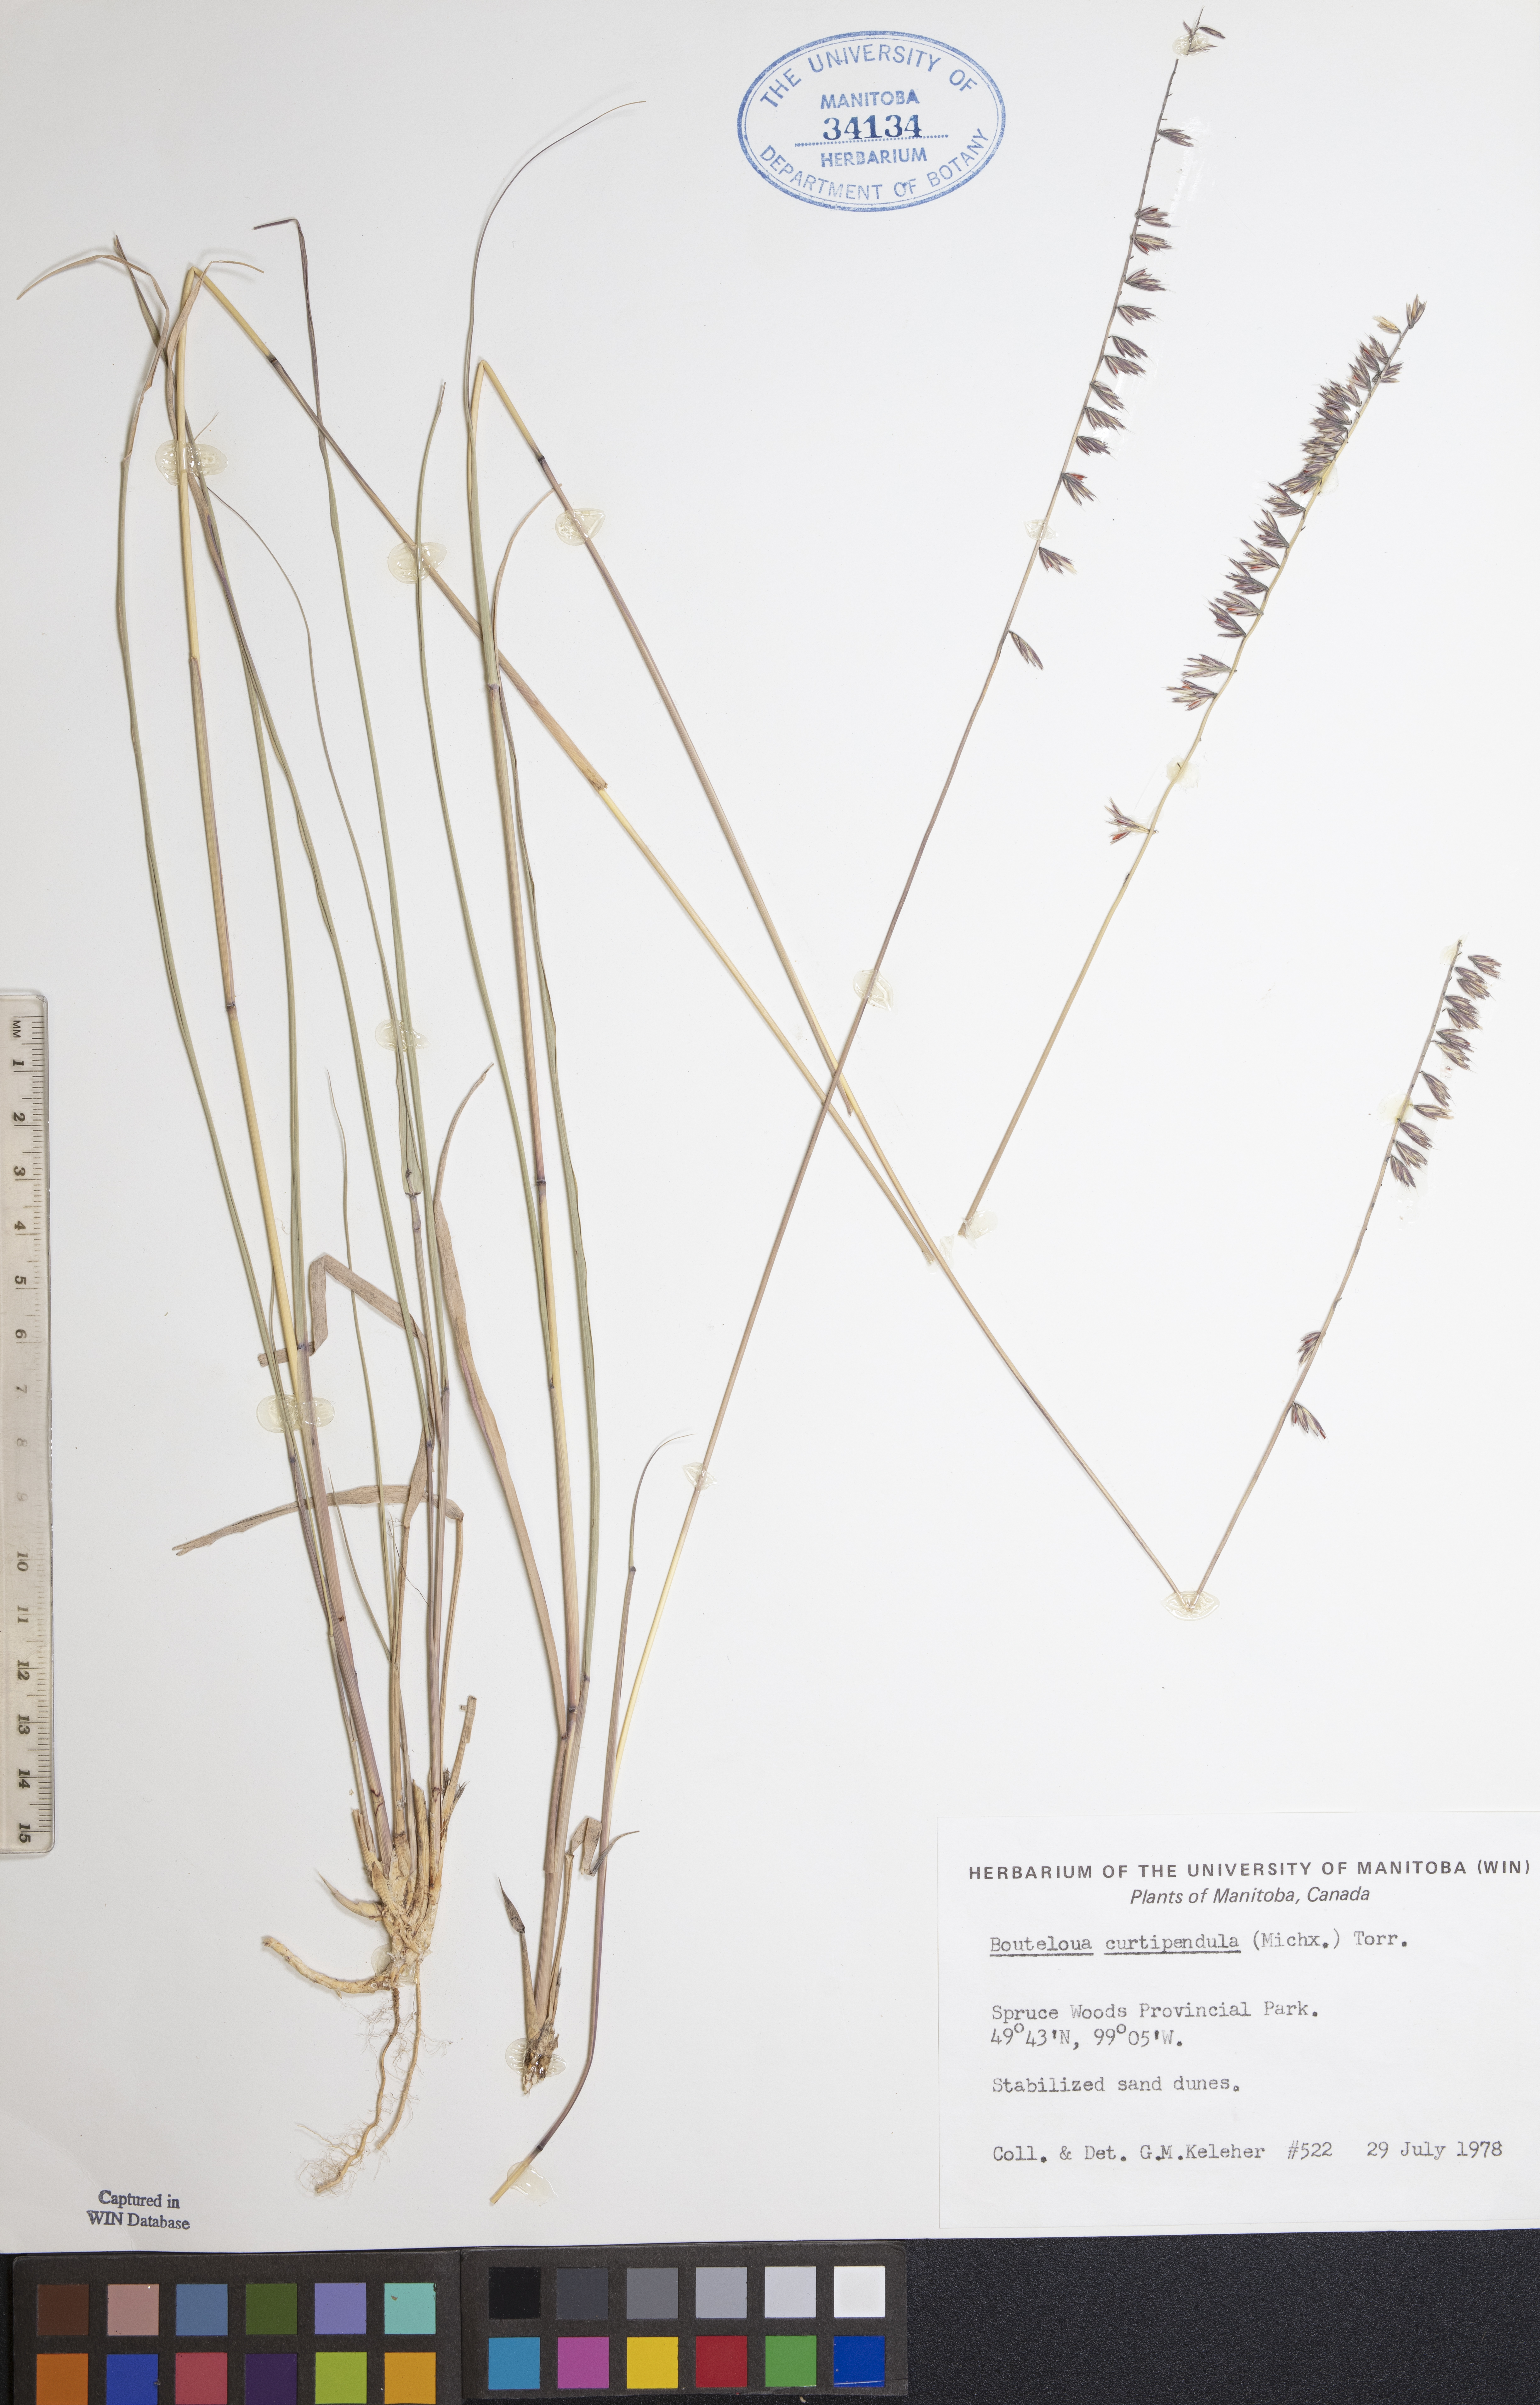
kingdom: Plantae
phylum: Tracheophyta
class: Liliopsida
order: Poales
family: Poaceae
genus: Bouteloua
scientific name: Bouteloua curtipendula
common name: Side-oats grama
